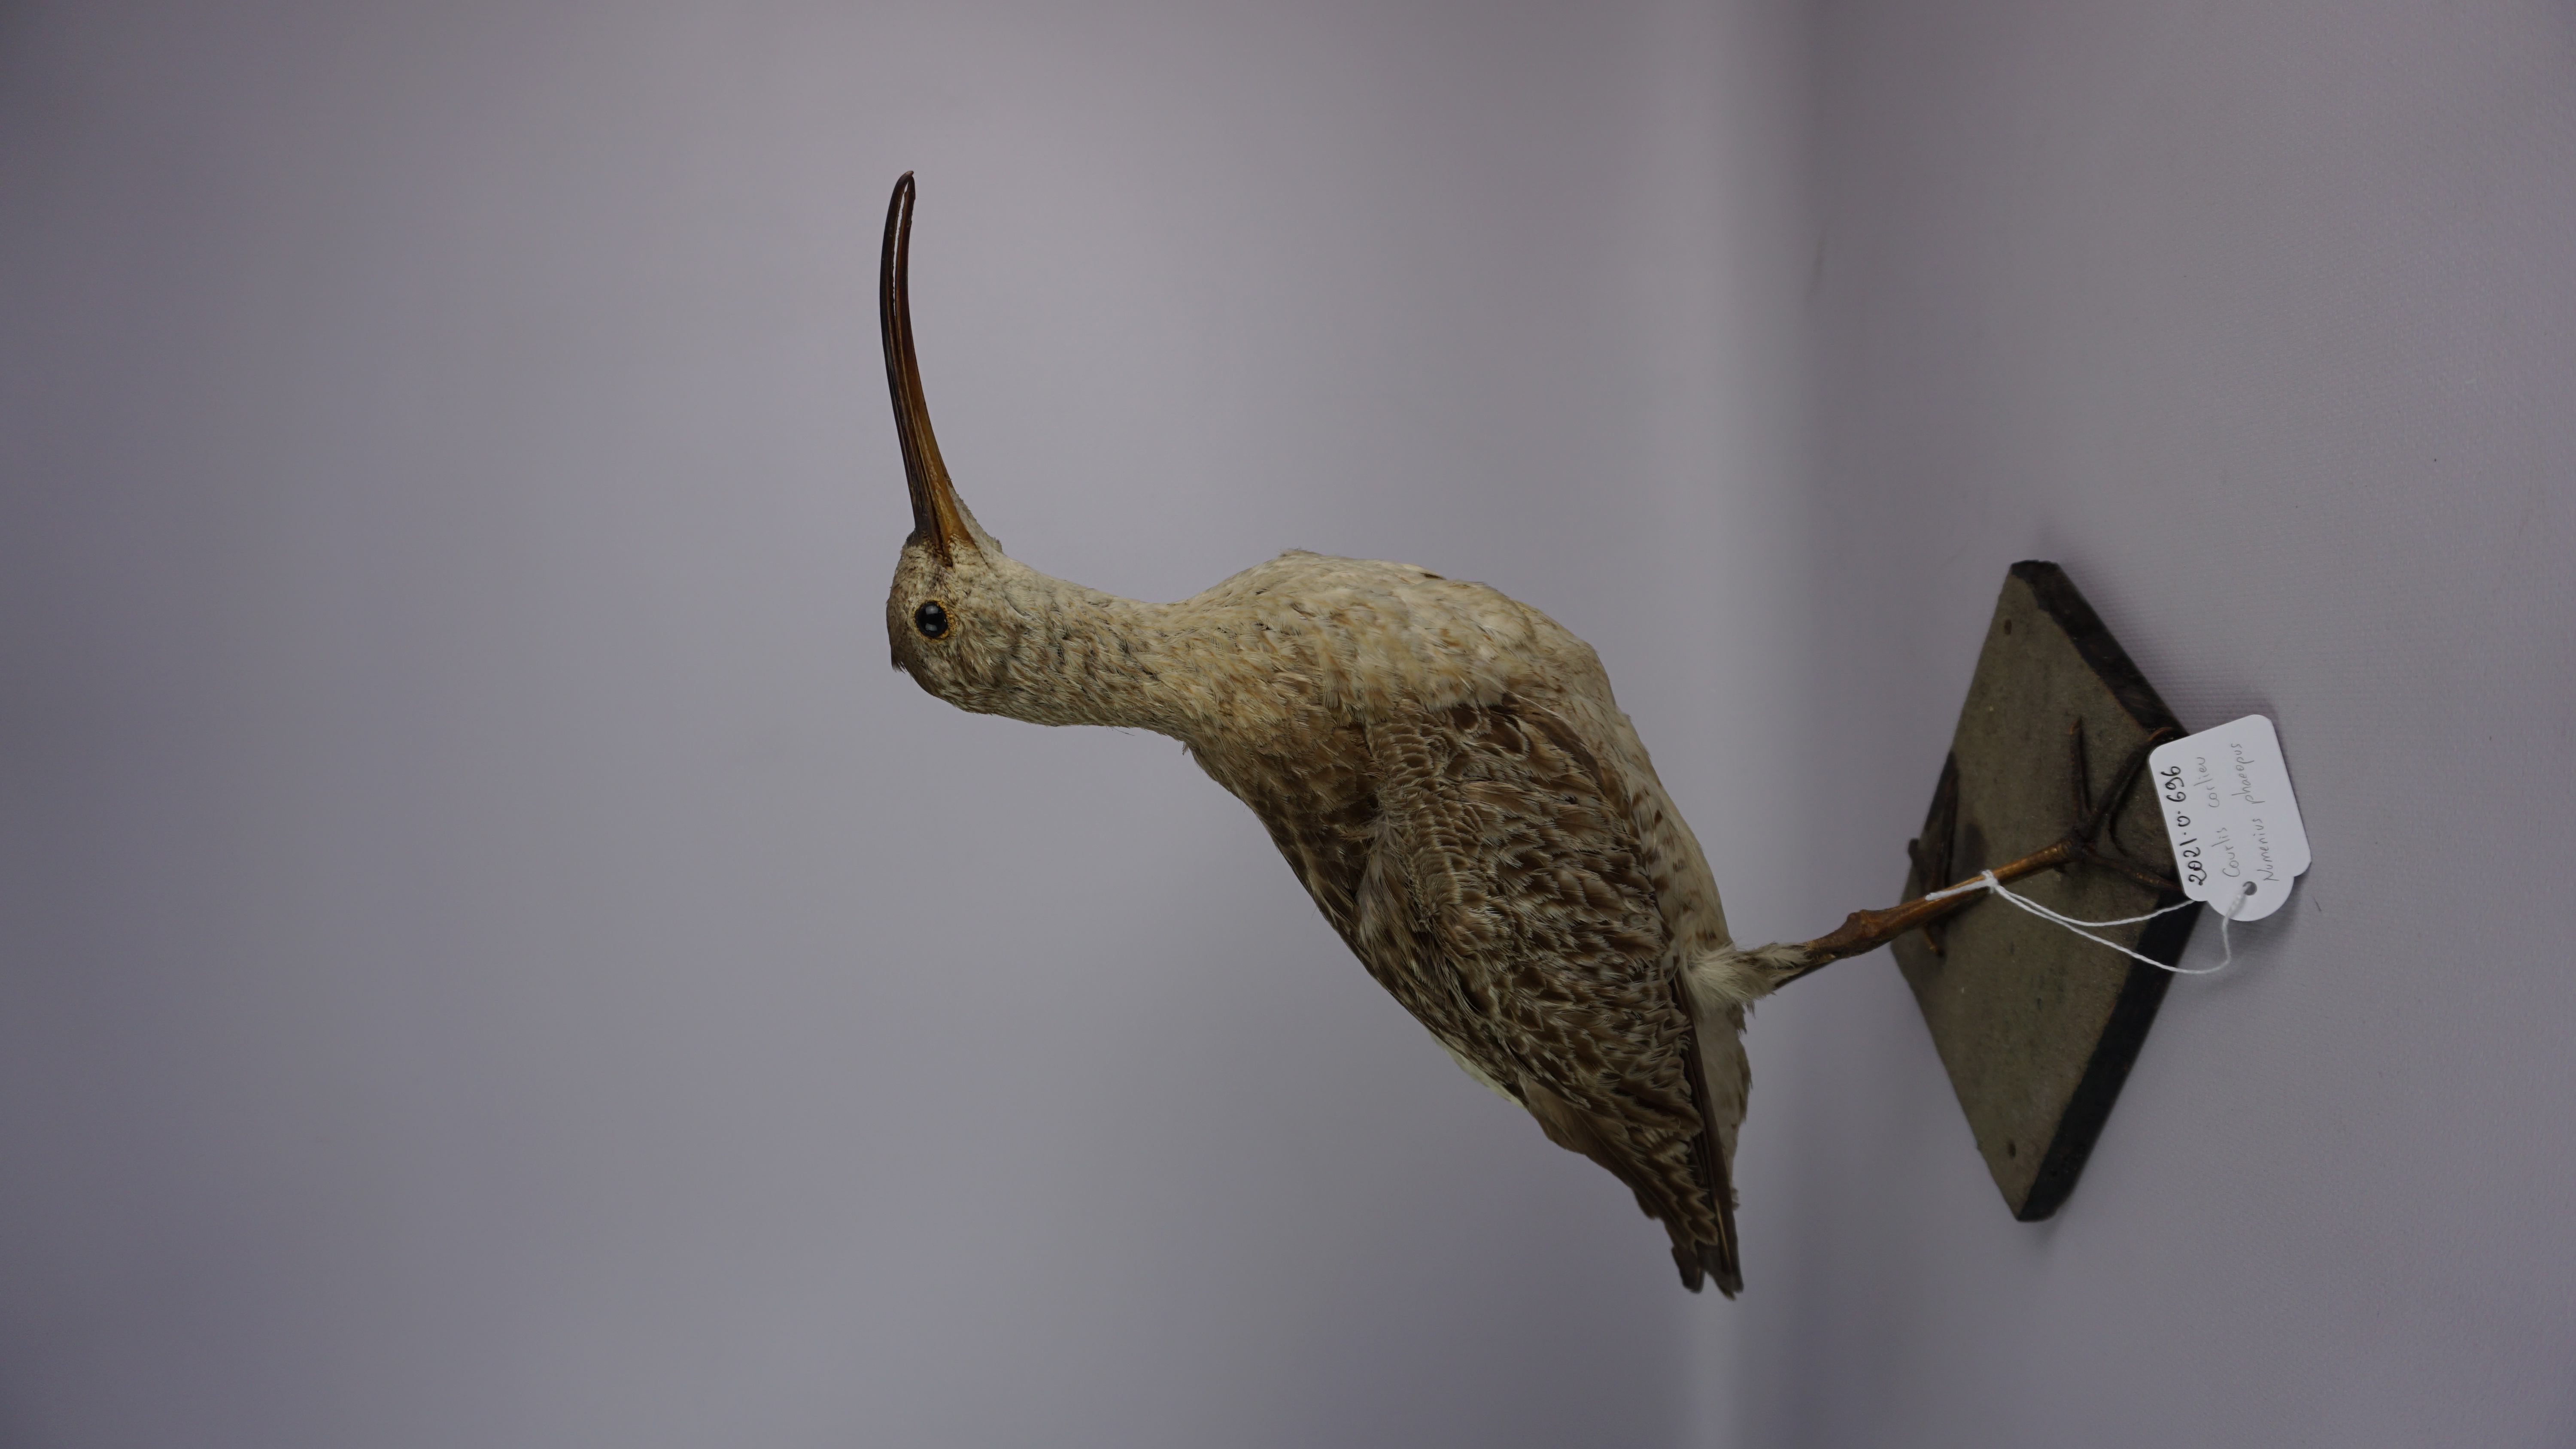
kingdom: Animalia
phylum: Chordata
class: Aves
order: Charadriiformes
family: Scolopacidae
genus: Numenius
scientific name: Numenius phaeopus
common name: Whimbrel
